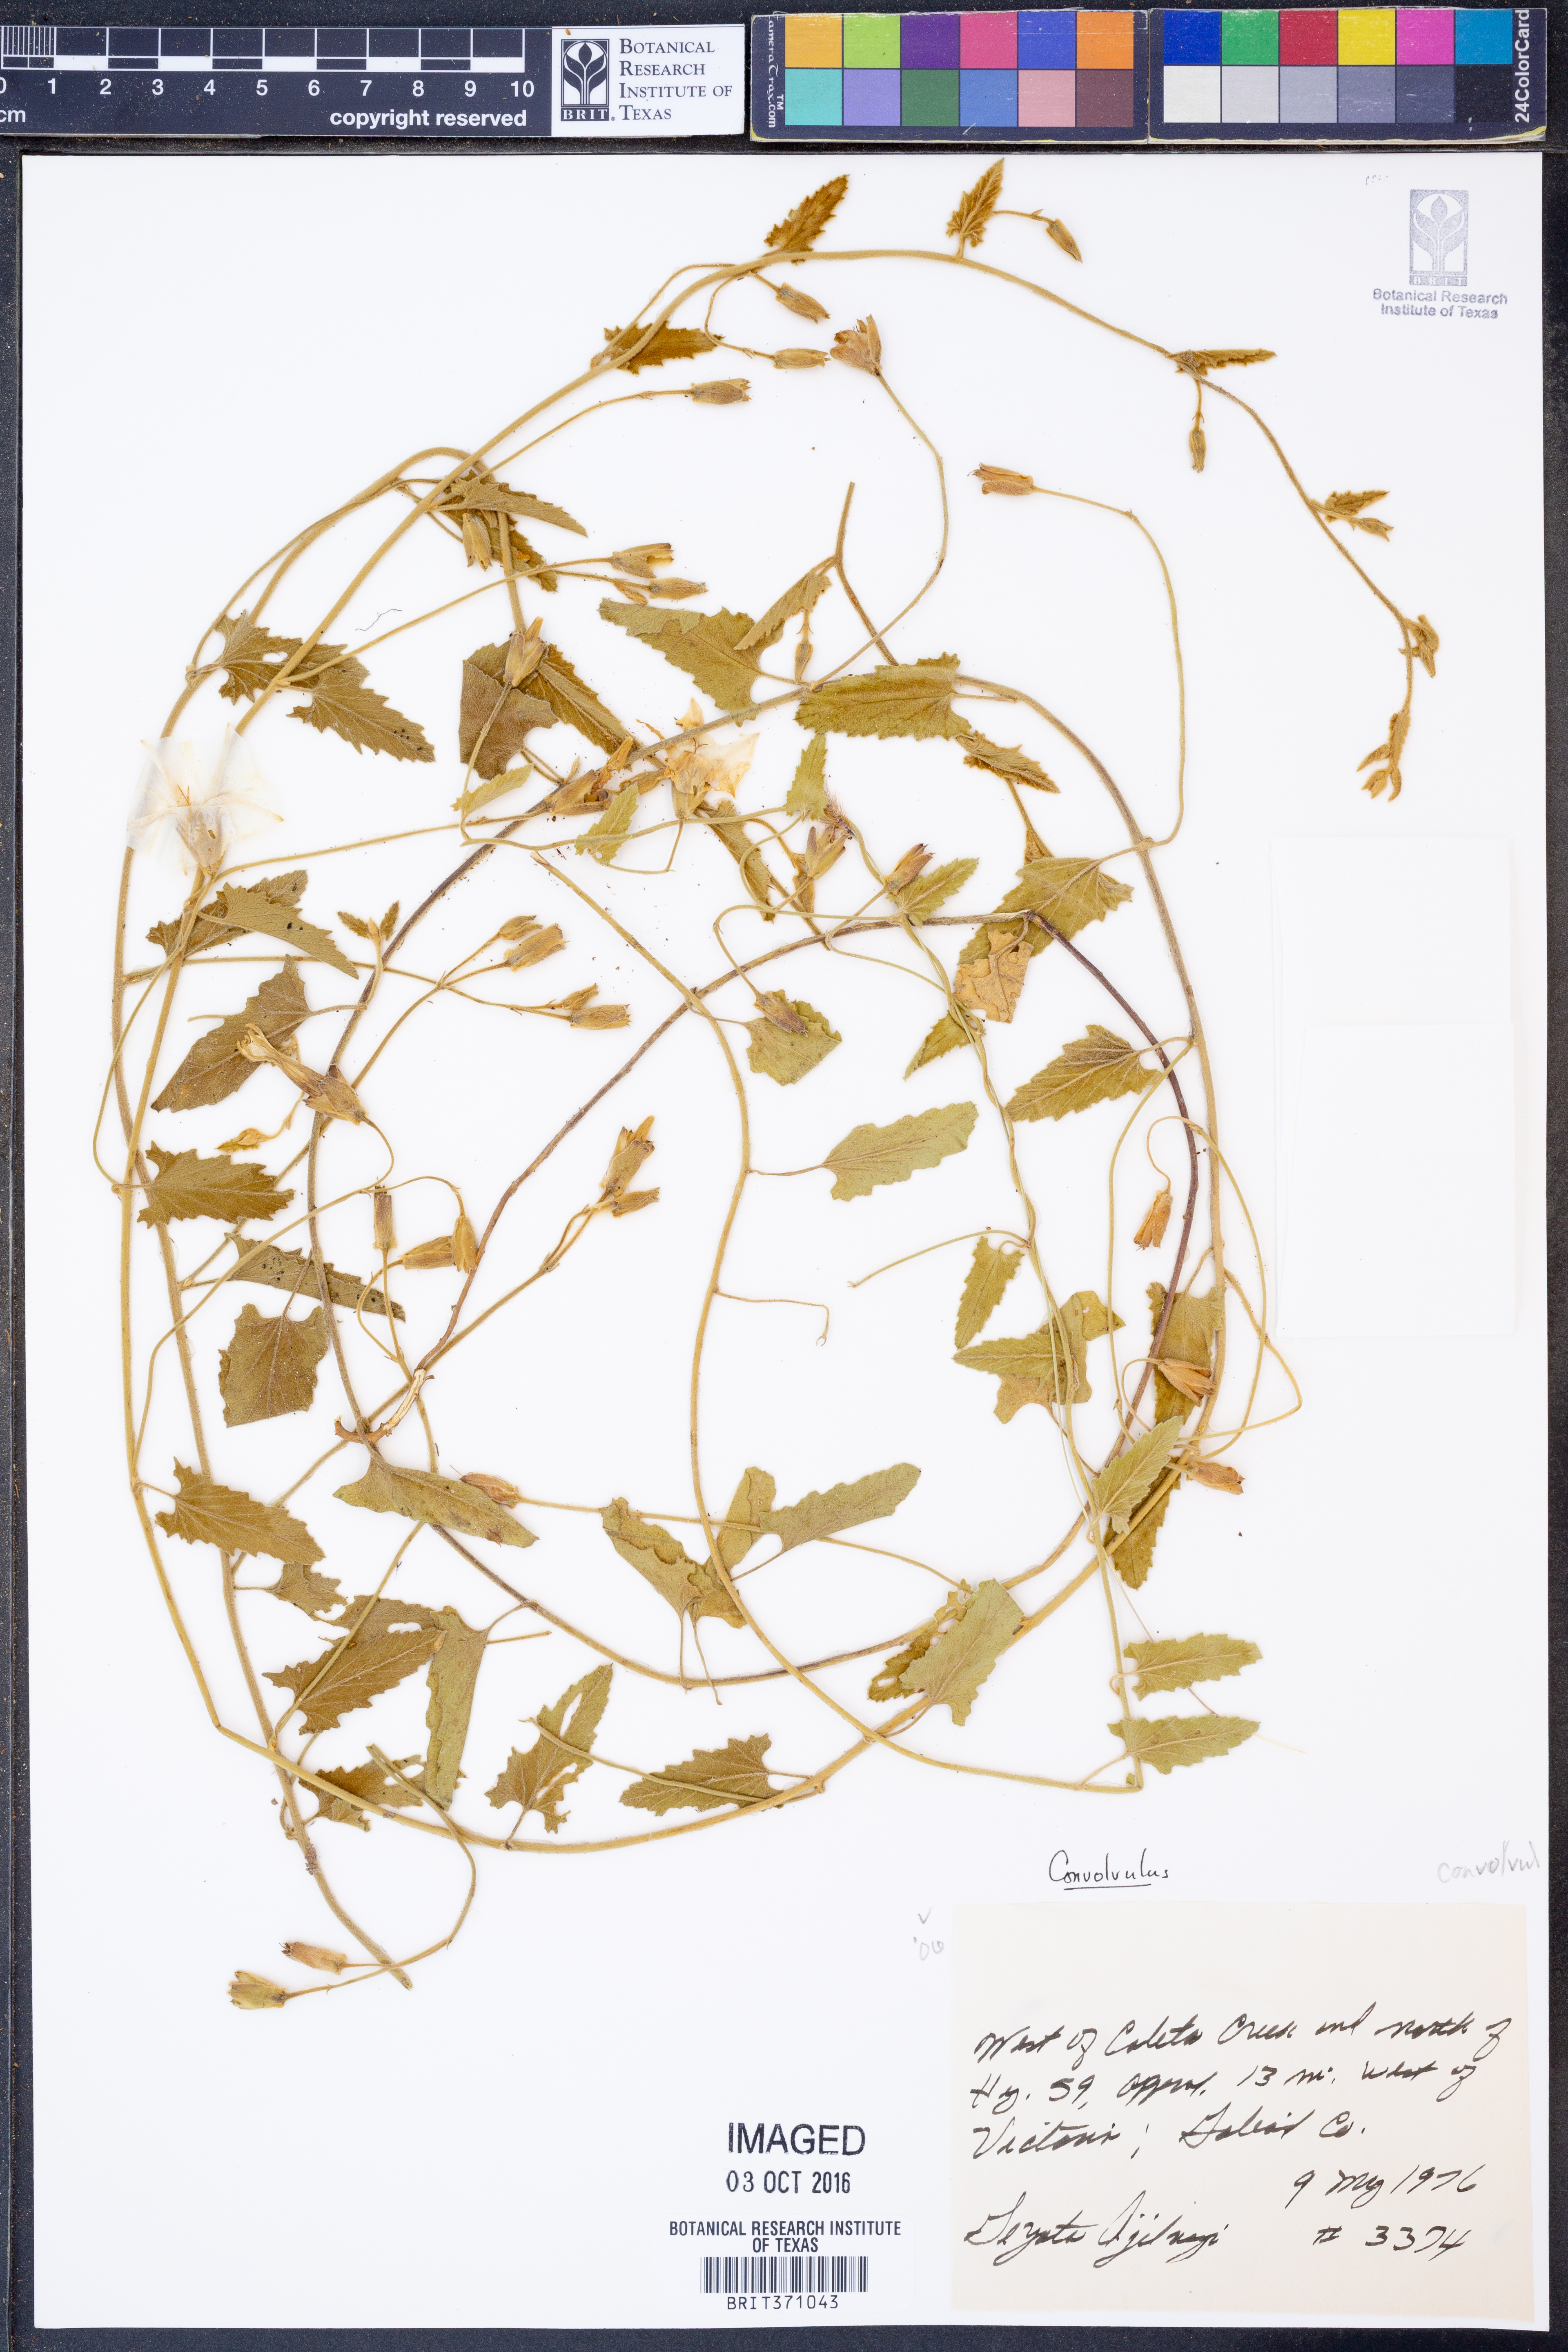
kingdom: Plantae
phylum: Tracheophyta
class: Magnoliopsida
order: Solanales
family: Convolvulaceae
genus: Convolvulus
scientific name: Convolvulus
